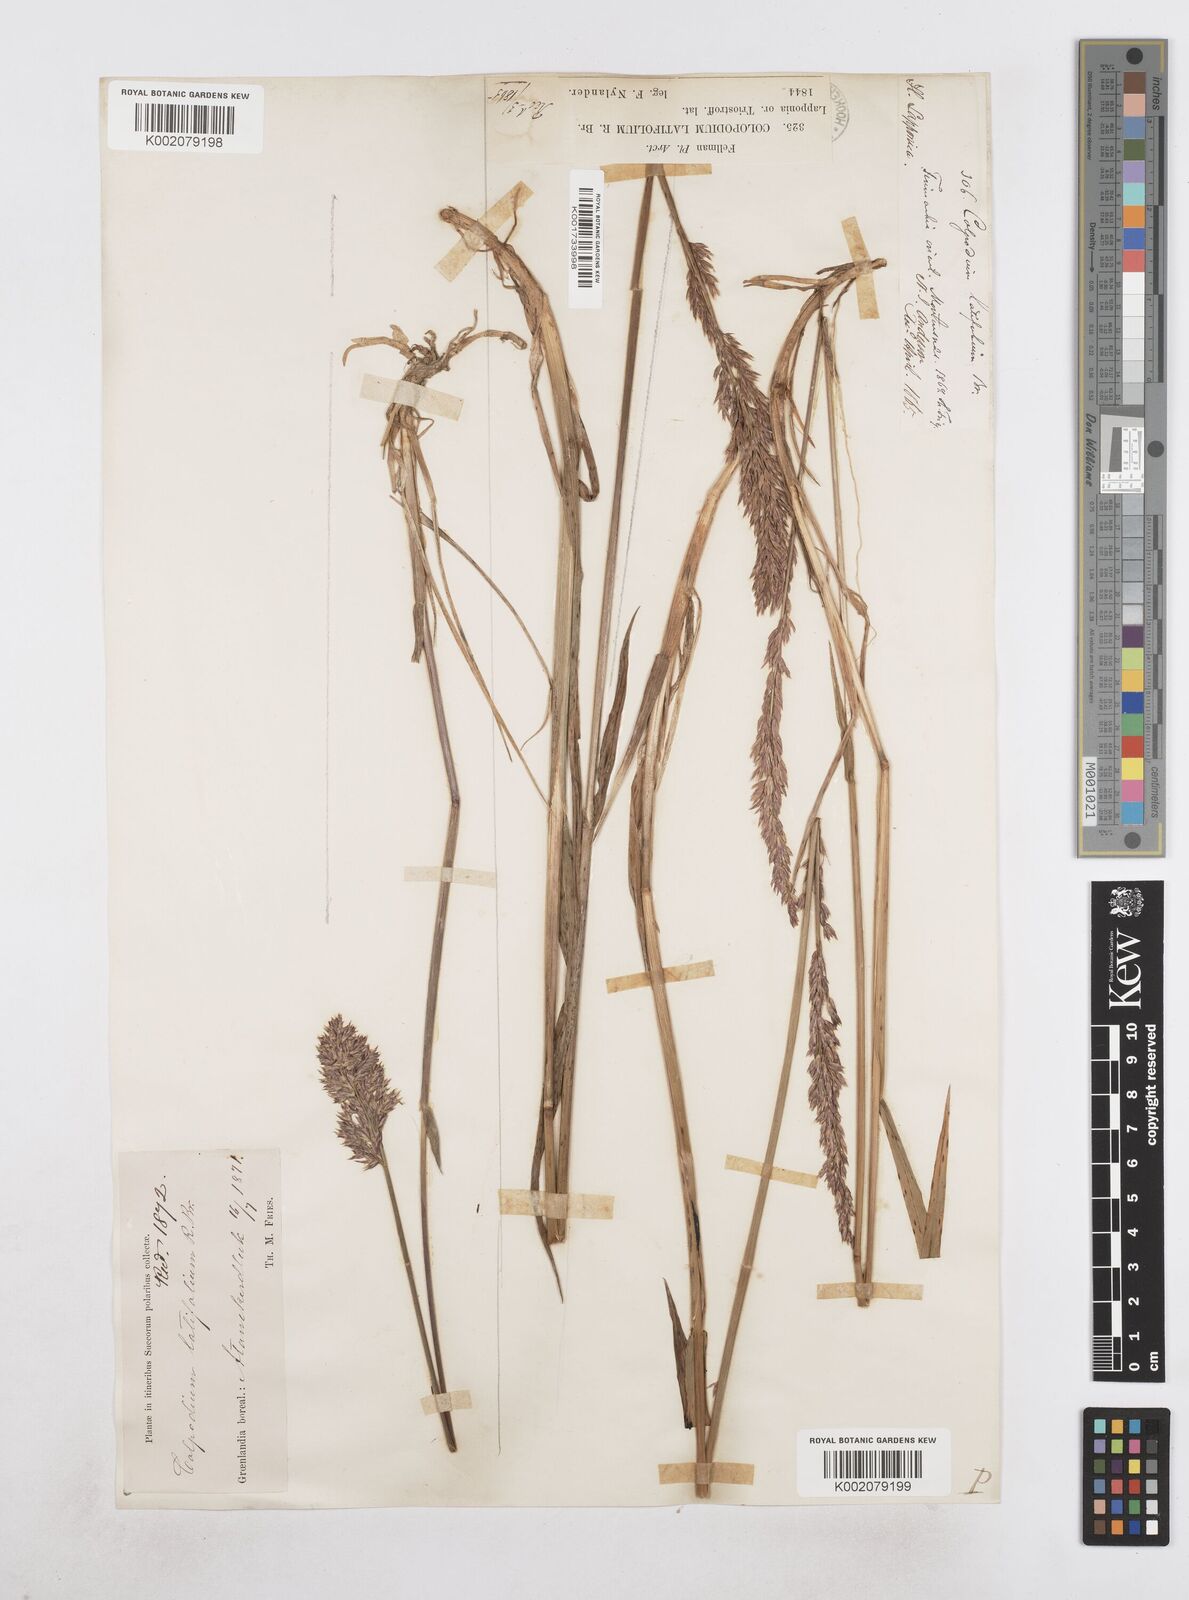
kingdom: Plantae
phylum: Tracheophyta
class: Liliopsida
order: Poales
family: Poaceae
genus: Arctagrostis
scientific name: Arctagrostis latifolia
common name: Arctic grass
